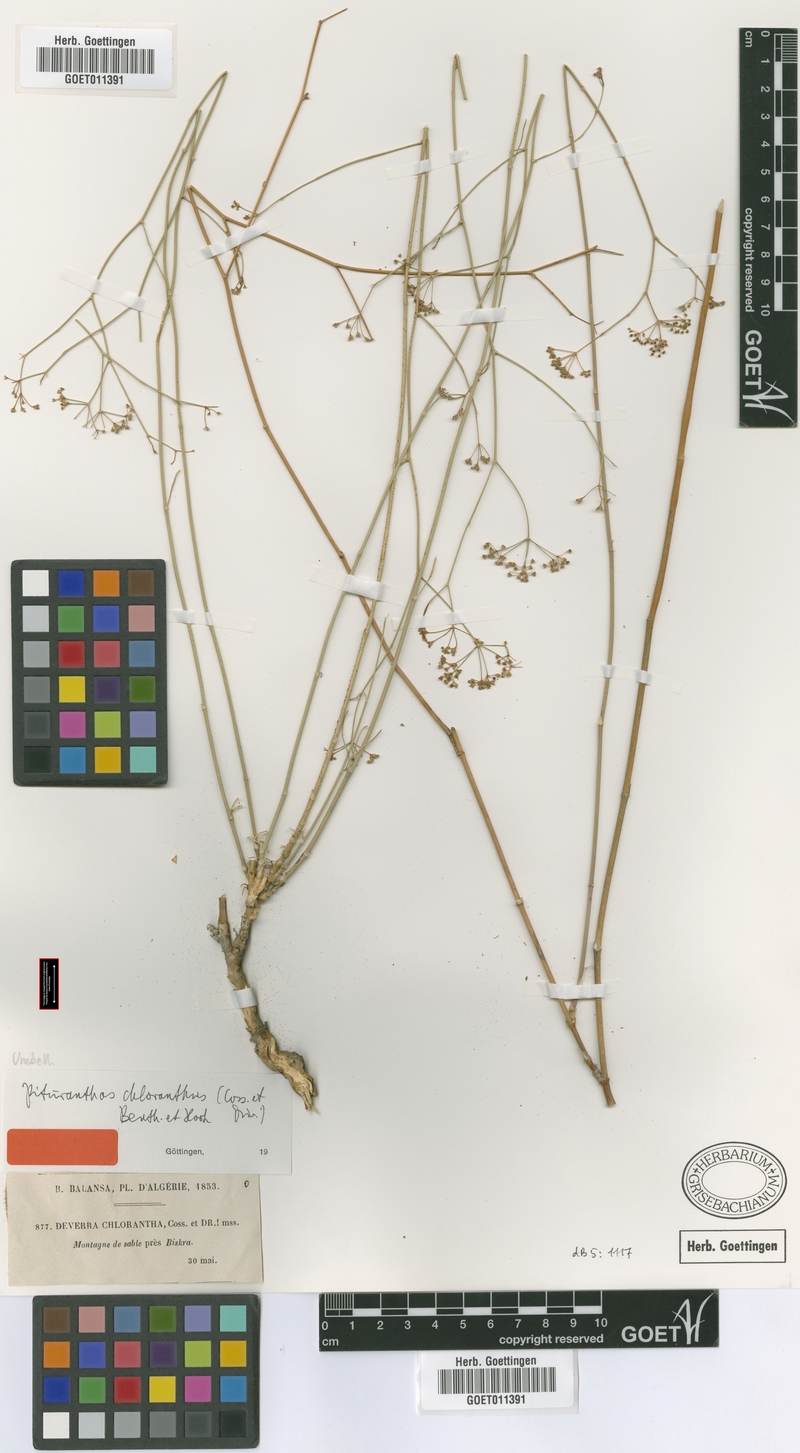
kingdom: Plantae
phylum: Tracheophyta
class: Magnoliopsida
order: Apiales
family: Apiaceae
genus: Deverra
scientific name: Deverra denudata
